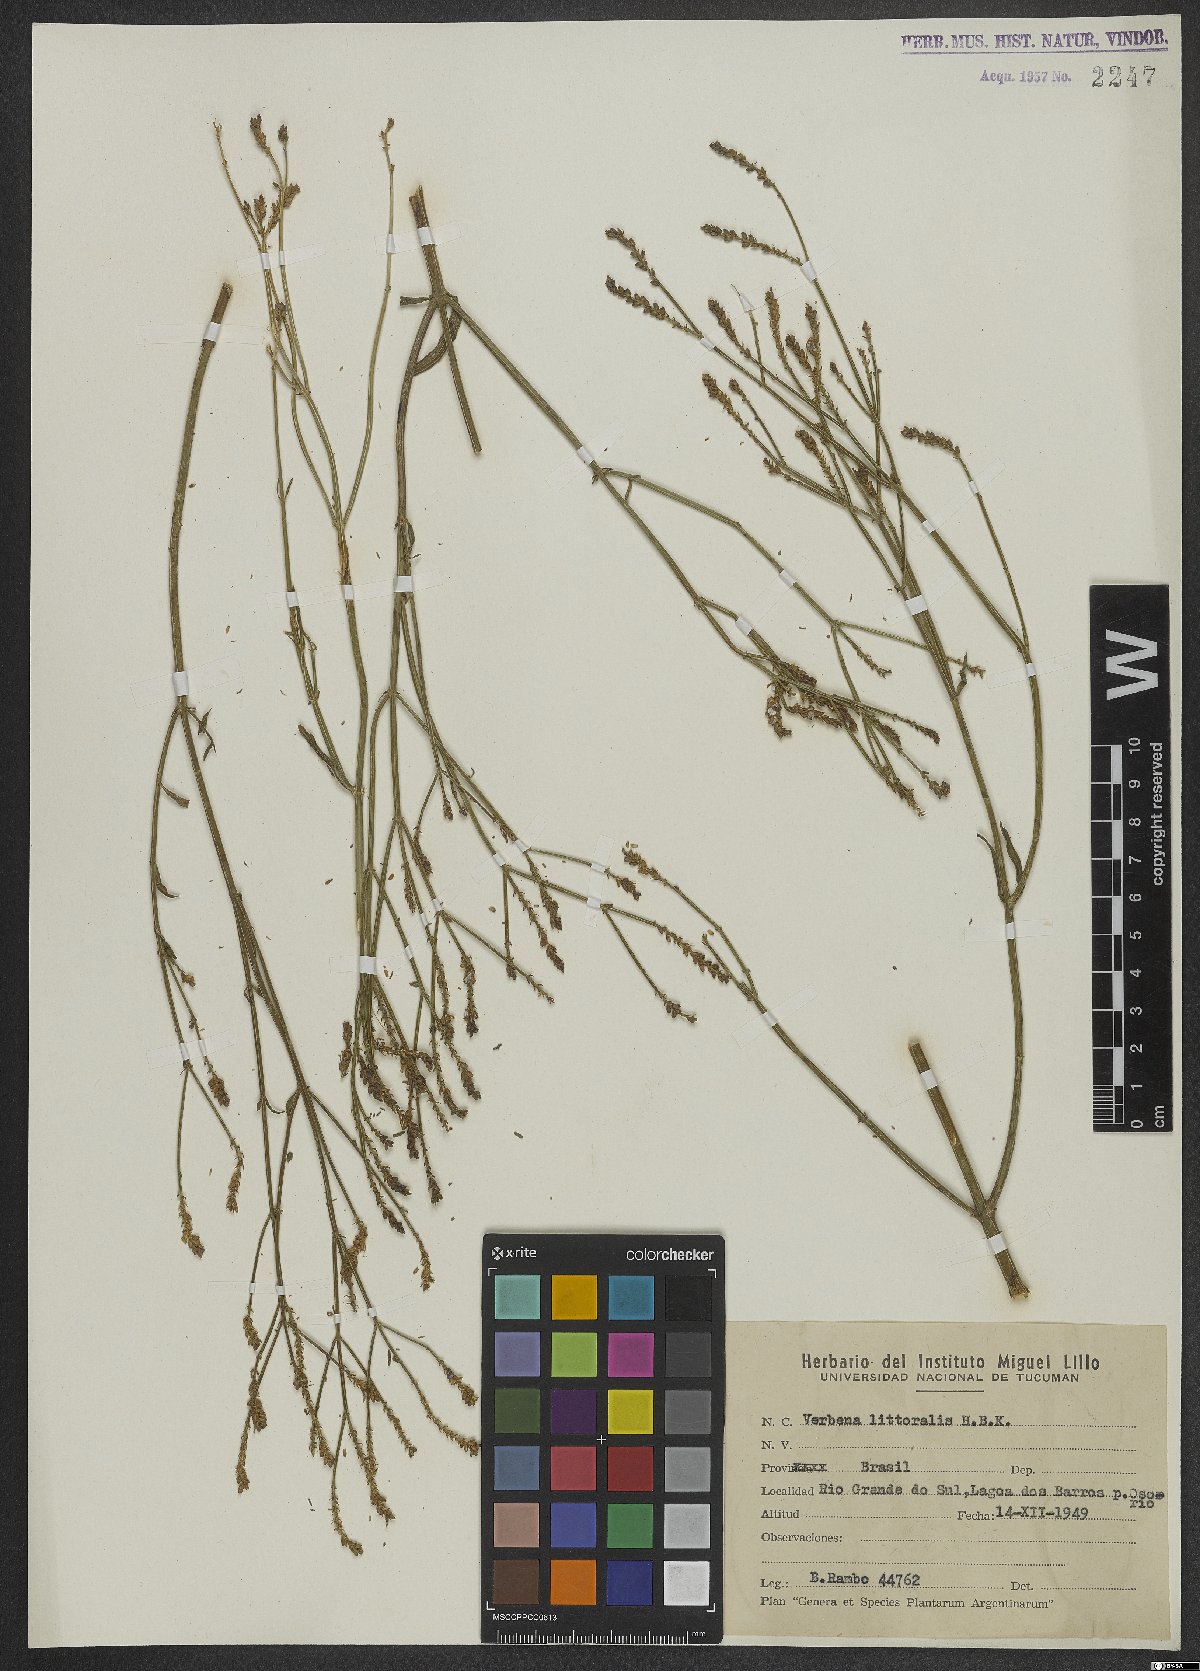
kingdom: Plantae
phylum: Tracheophyta
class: Magnoliopsida
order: Lamiales
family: Verbenaceae
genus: Verbena
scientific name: Verbena litoralis
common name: Seashore vervain
